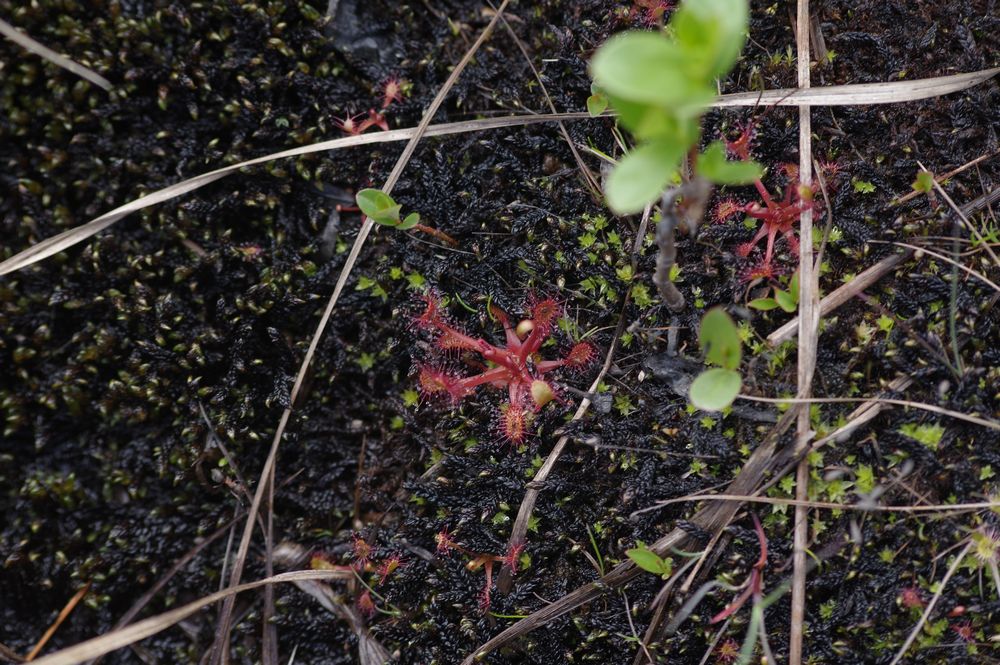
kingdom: Plantae
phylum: Tracheophyta
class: Magnoliopsida
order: Caryophyllales
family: Droseraceae
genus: Drosera
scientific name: Drosera
